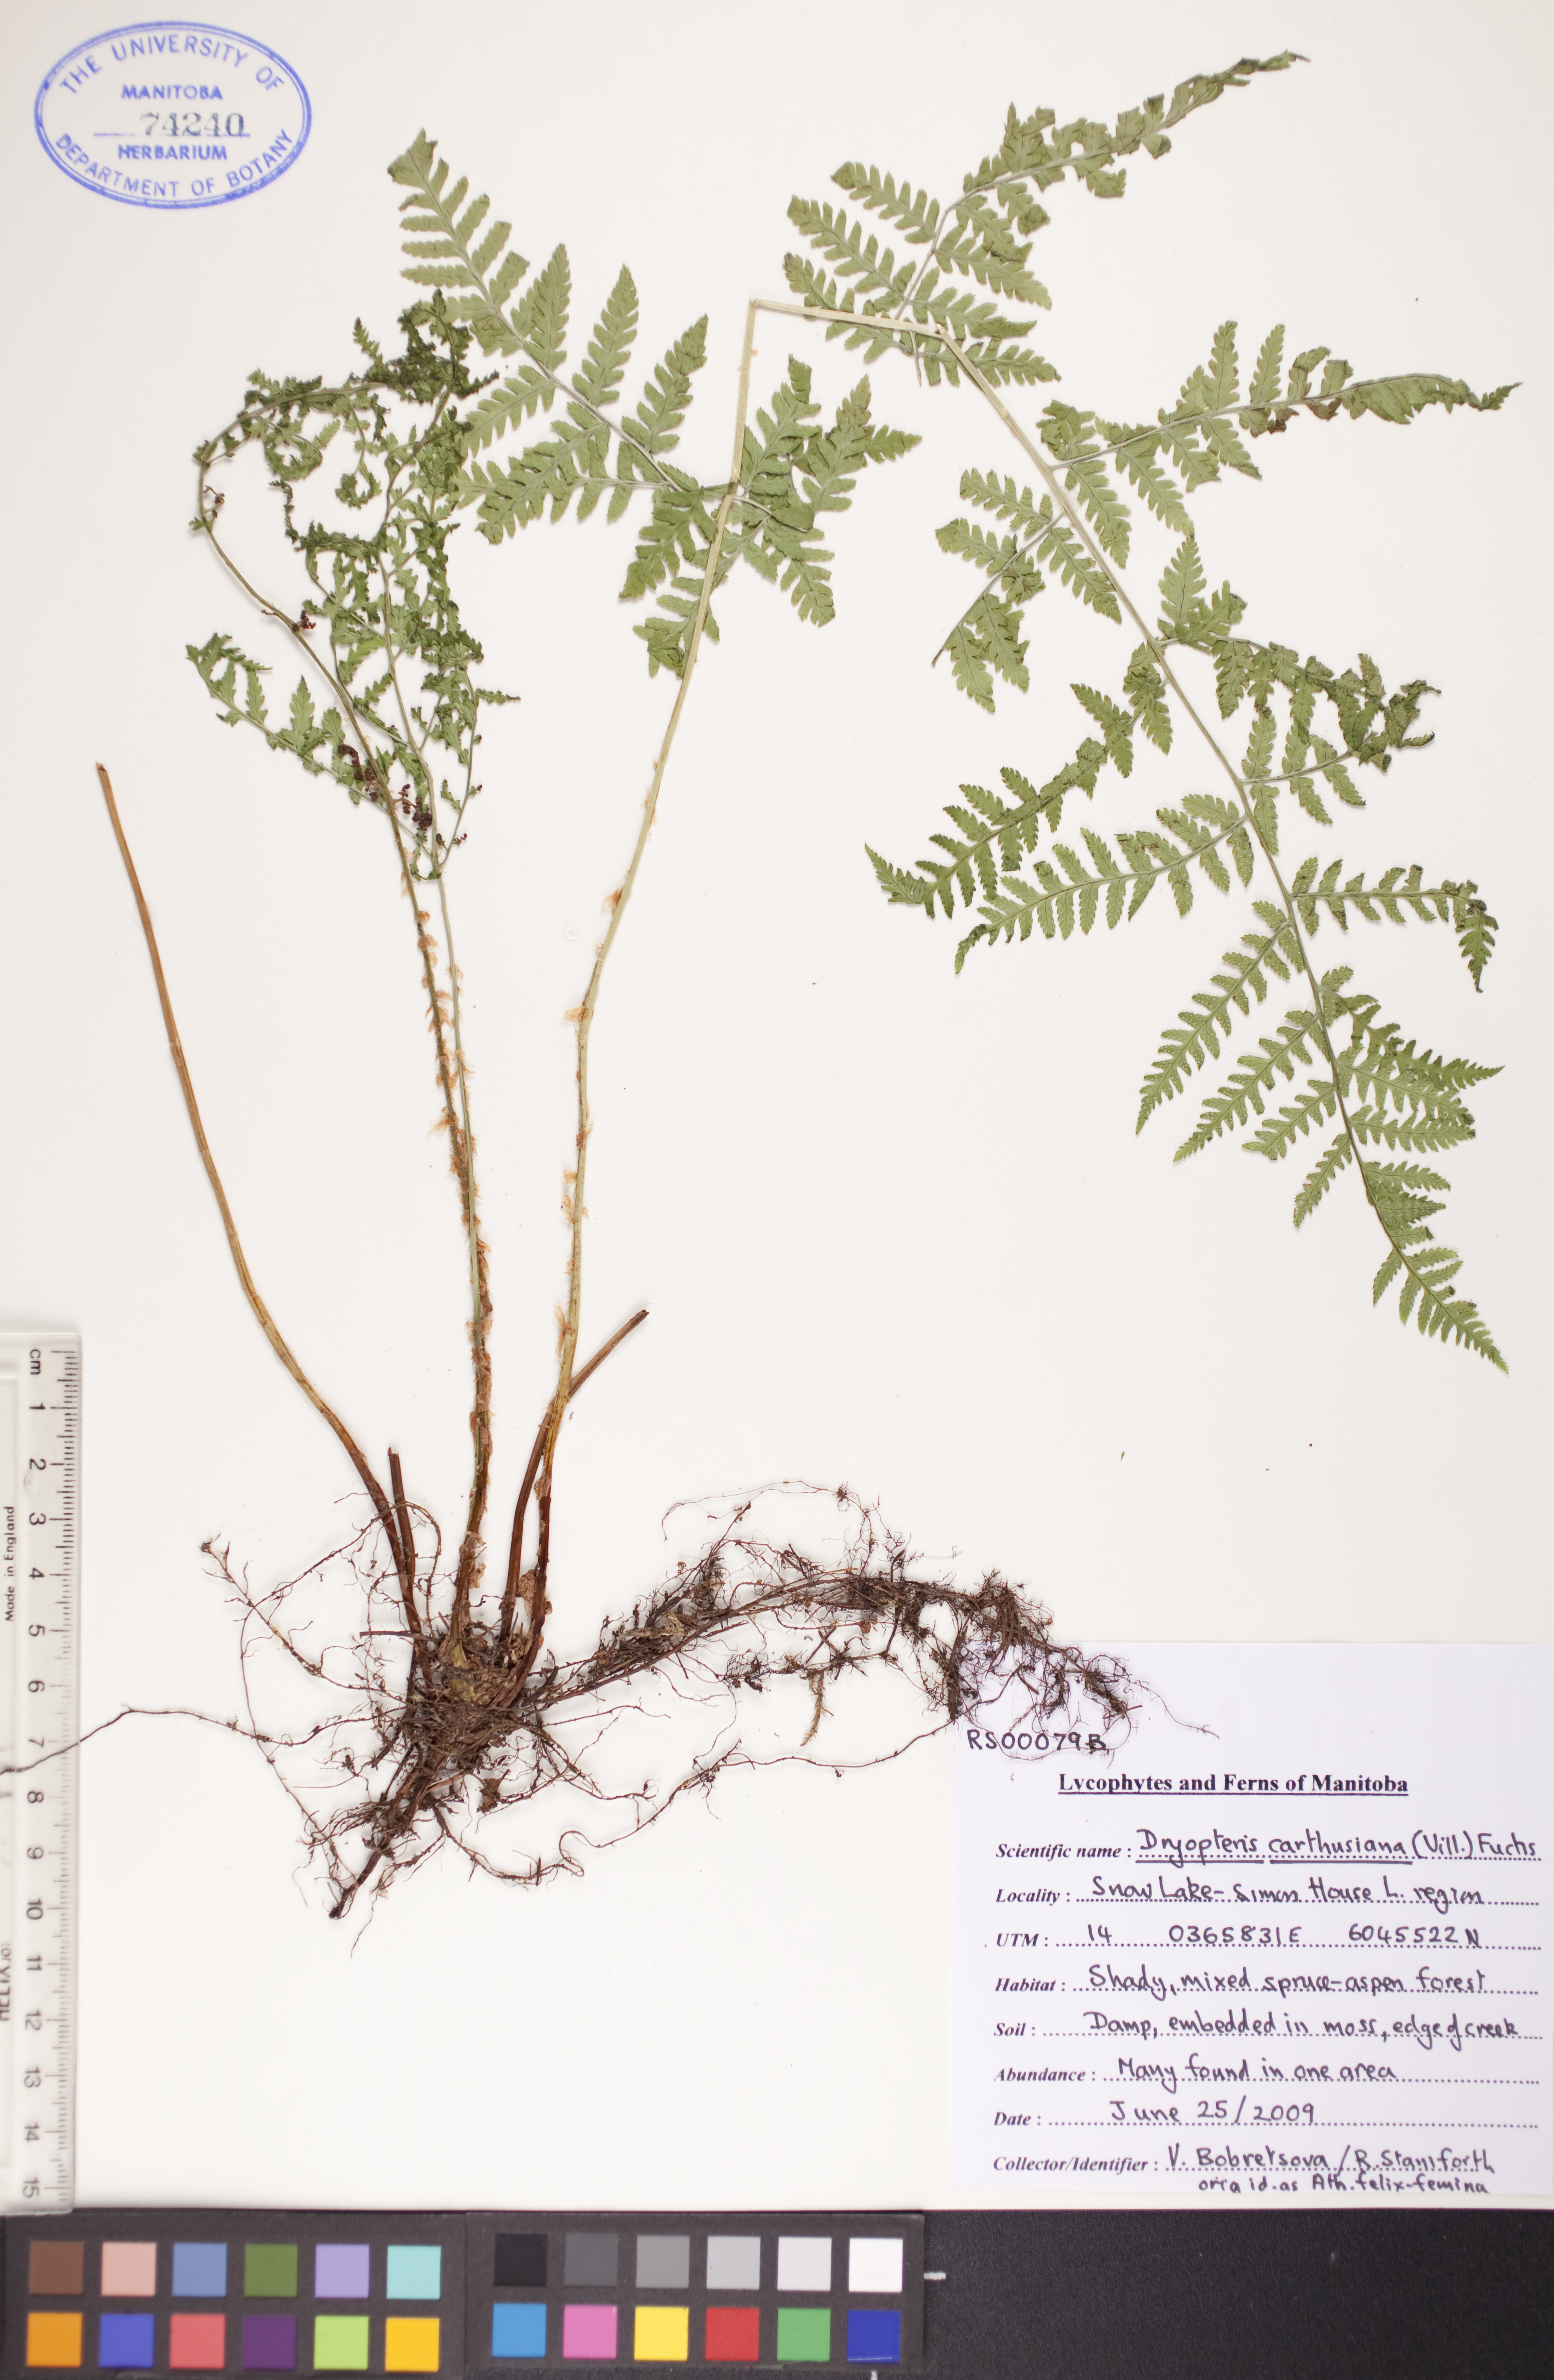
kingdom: Plantae
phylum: Tracheophyta
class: Polypodiopsida
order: Polypodiales
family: Dryopteridaceae
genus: Dryopteris
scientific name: Dryopteris carthusiana
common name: Narrow buckler-fern
